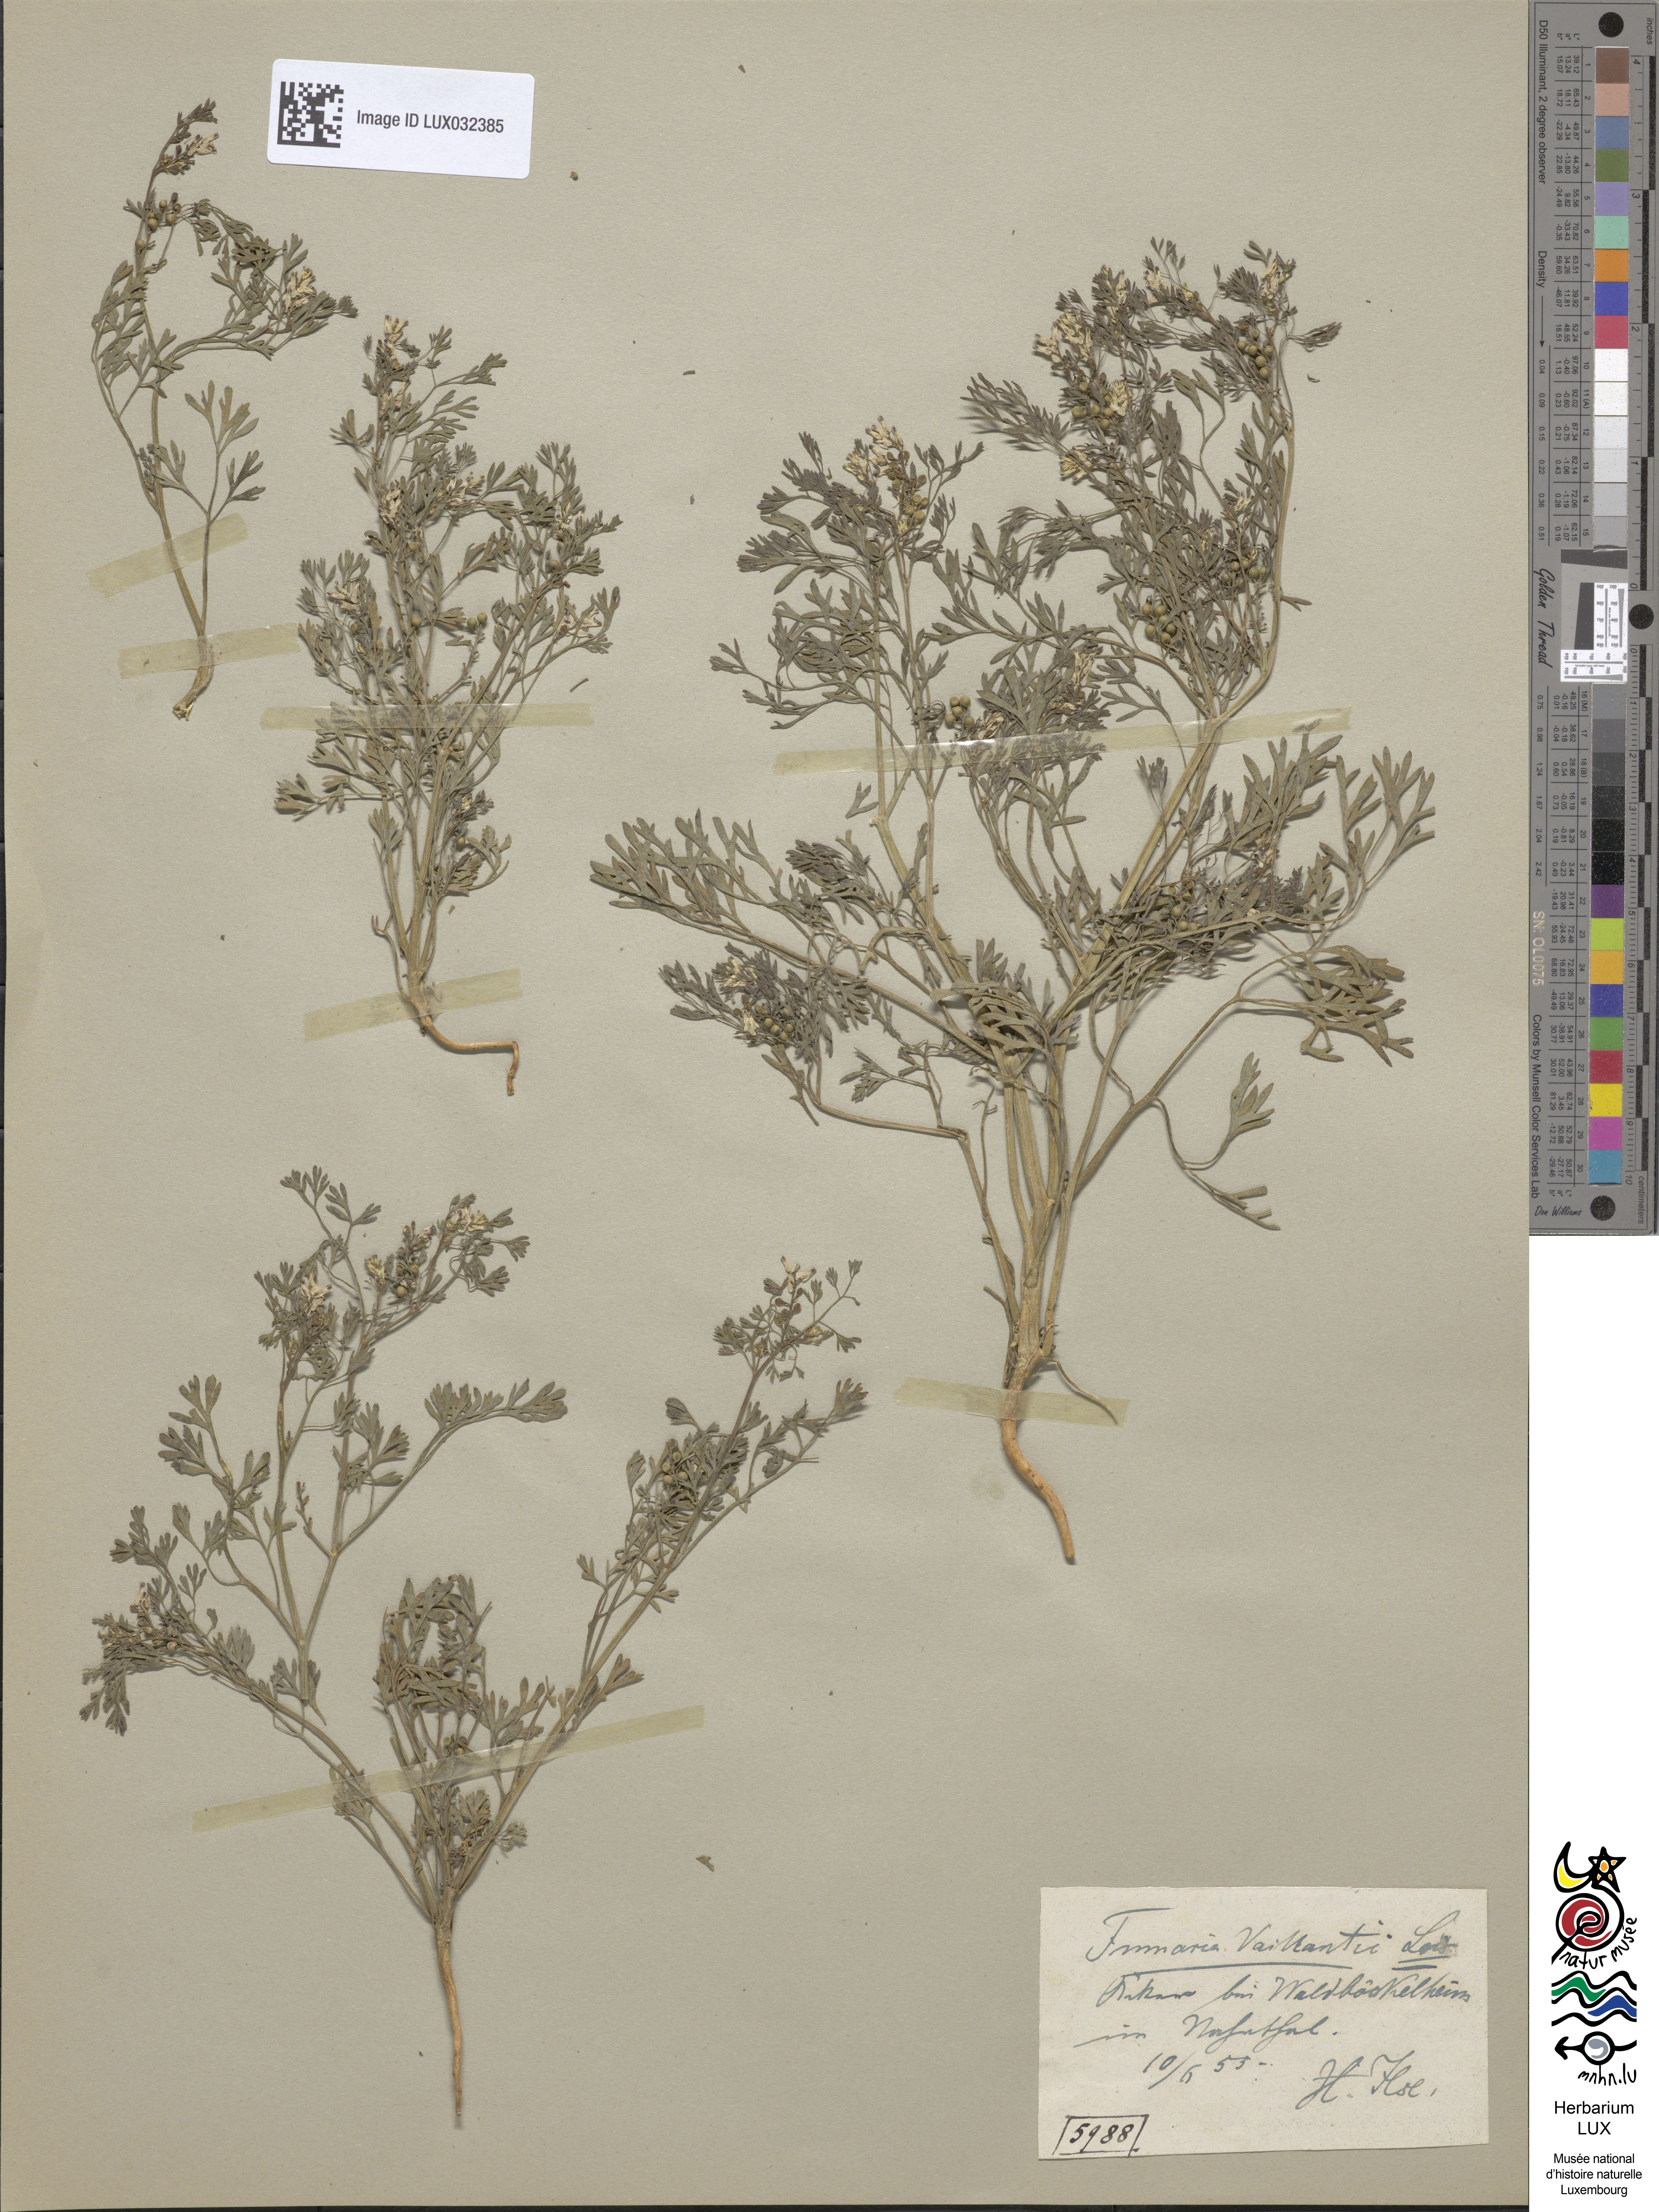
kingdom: Plantae
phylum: Tracheophyta
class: Magnoliopsida
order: Ranunculales
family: Papaveraceae
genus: Fumaria
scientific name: Fumaria vaillantii
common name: Few-flowered fumitory
